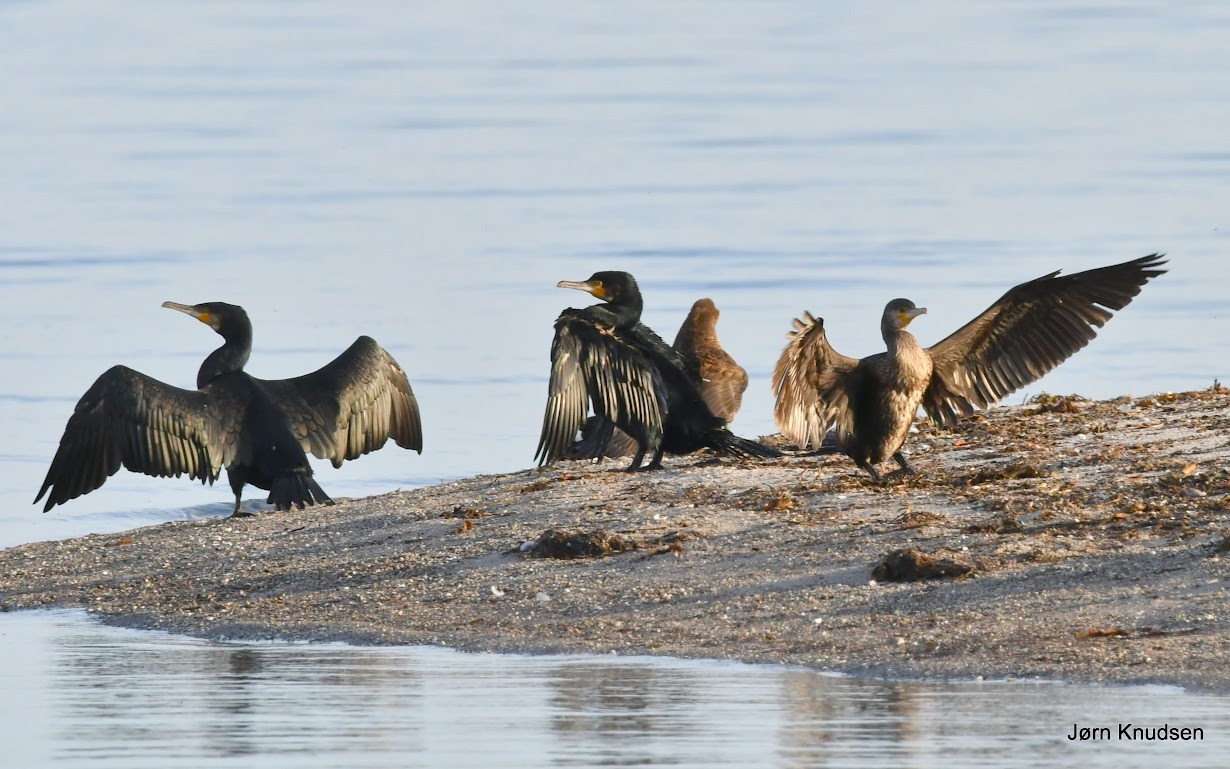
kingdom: Animalia
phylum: Chordata
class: Aves
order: Suliformes
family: Phalacrocoracidae
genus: Phalacrocorax
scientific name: Phalacrocorax carbo
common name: Skarv
